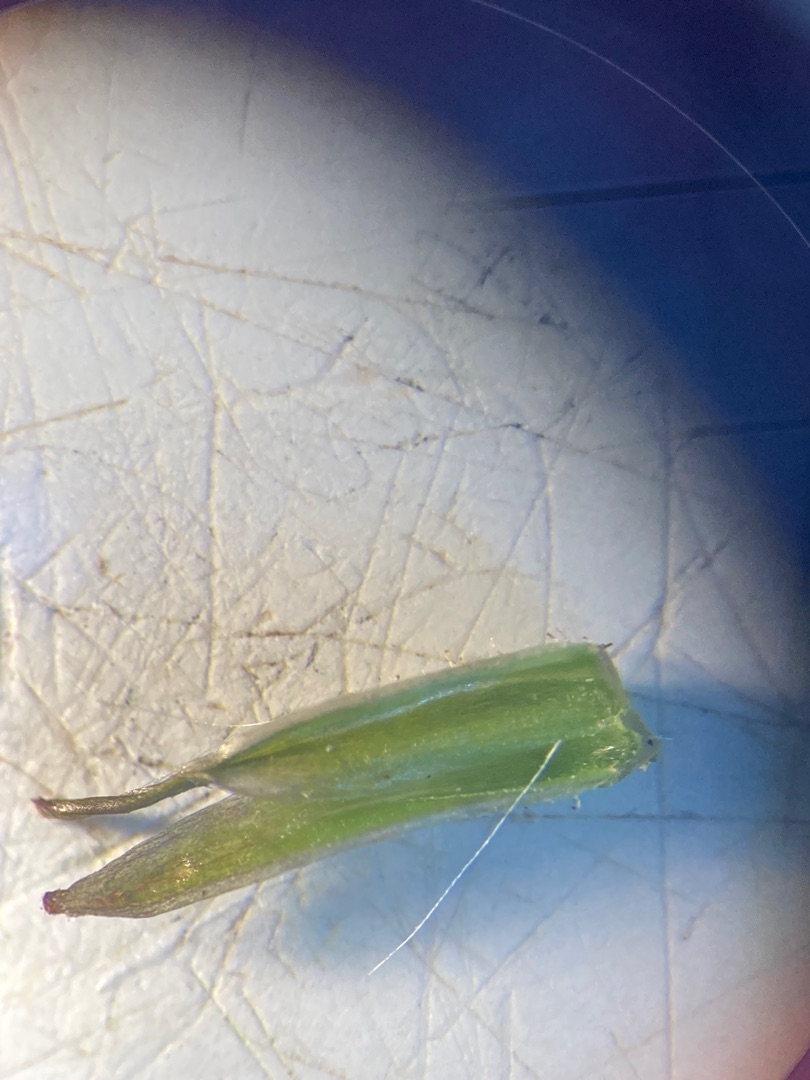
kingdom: Plantae
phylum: Tracheophyta
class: Magnoliopsida
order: Asterales
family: Asteraceae
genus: Crepis
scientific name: Crepis capillaris
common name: Grøn høgeskæg
